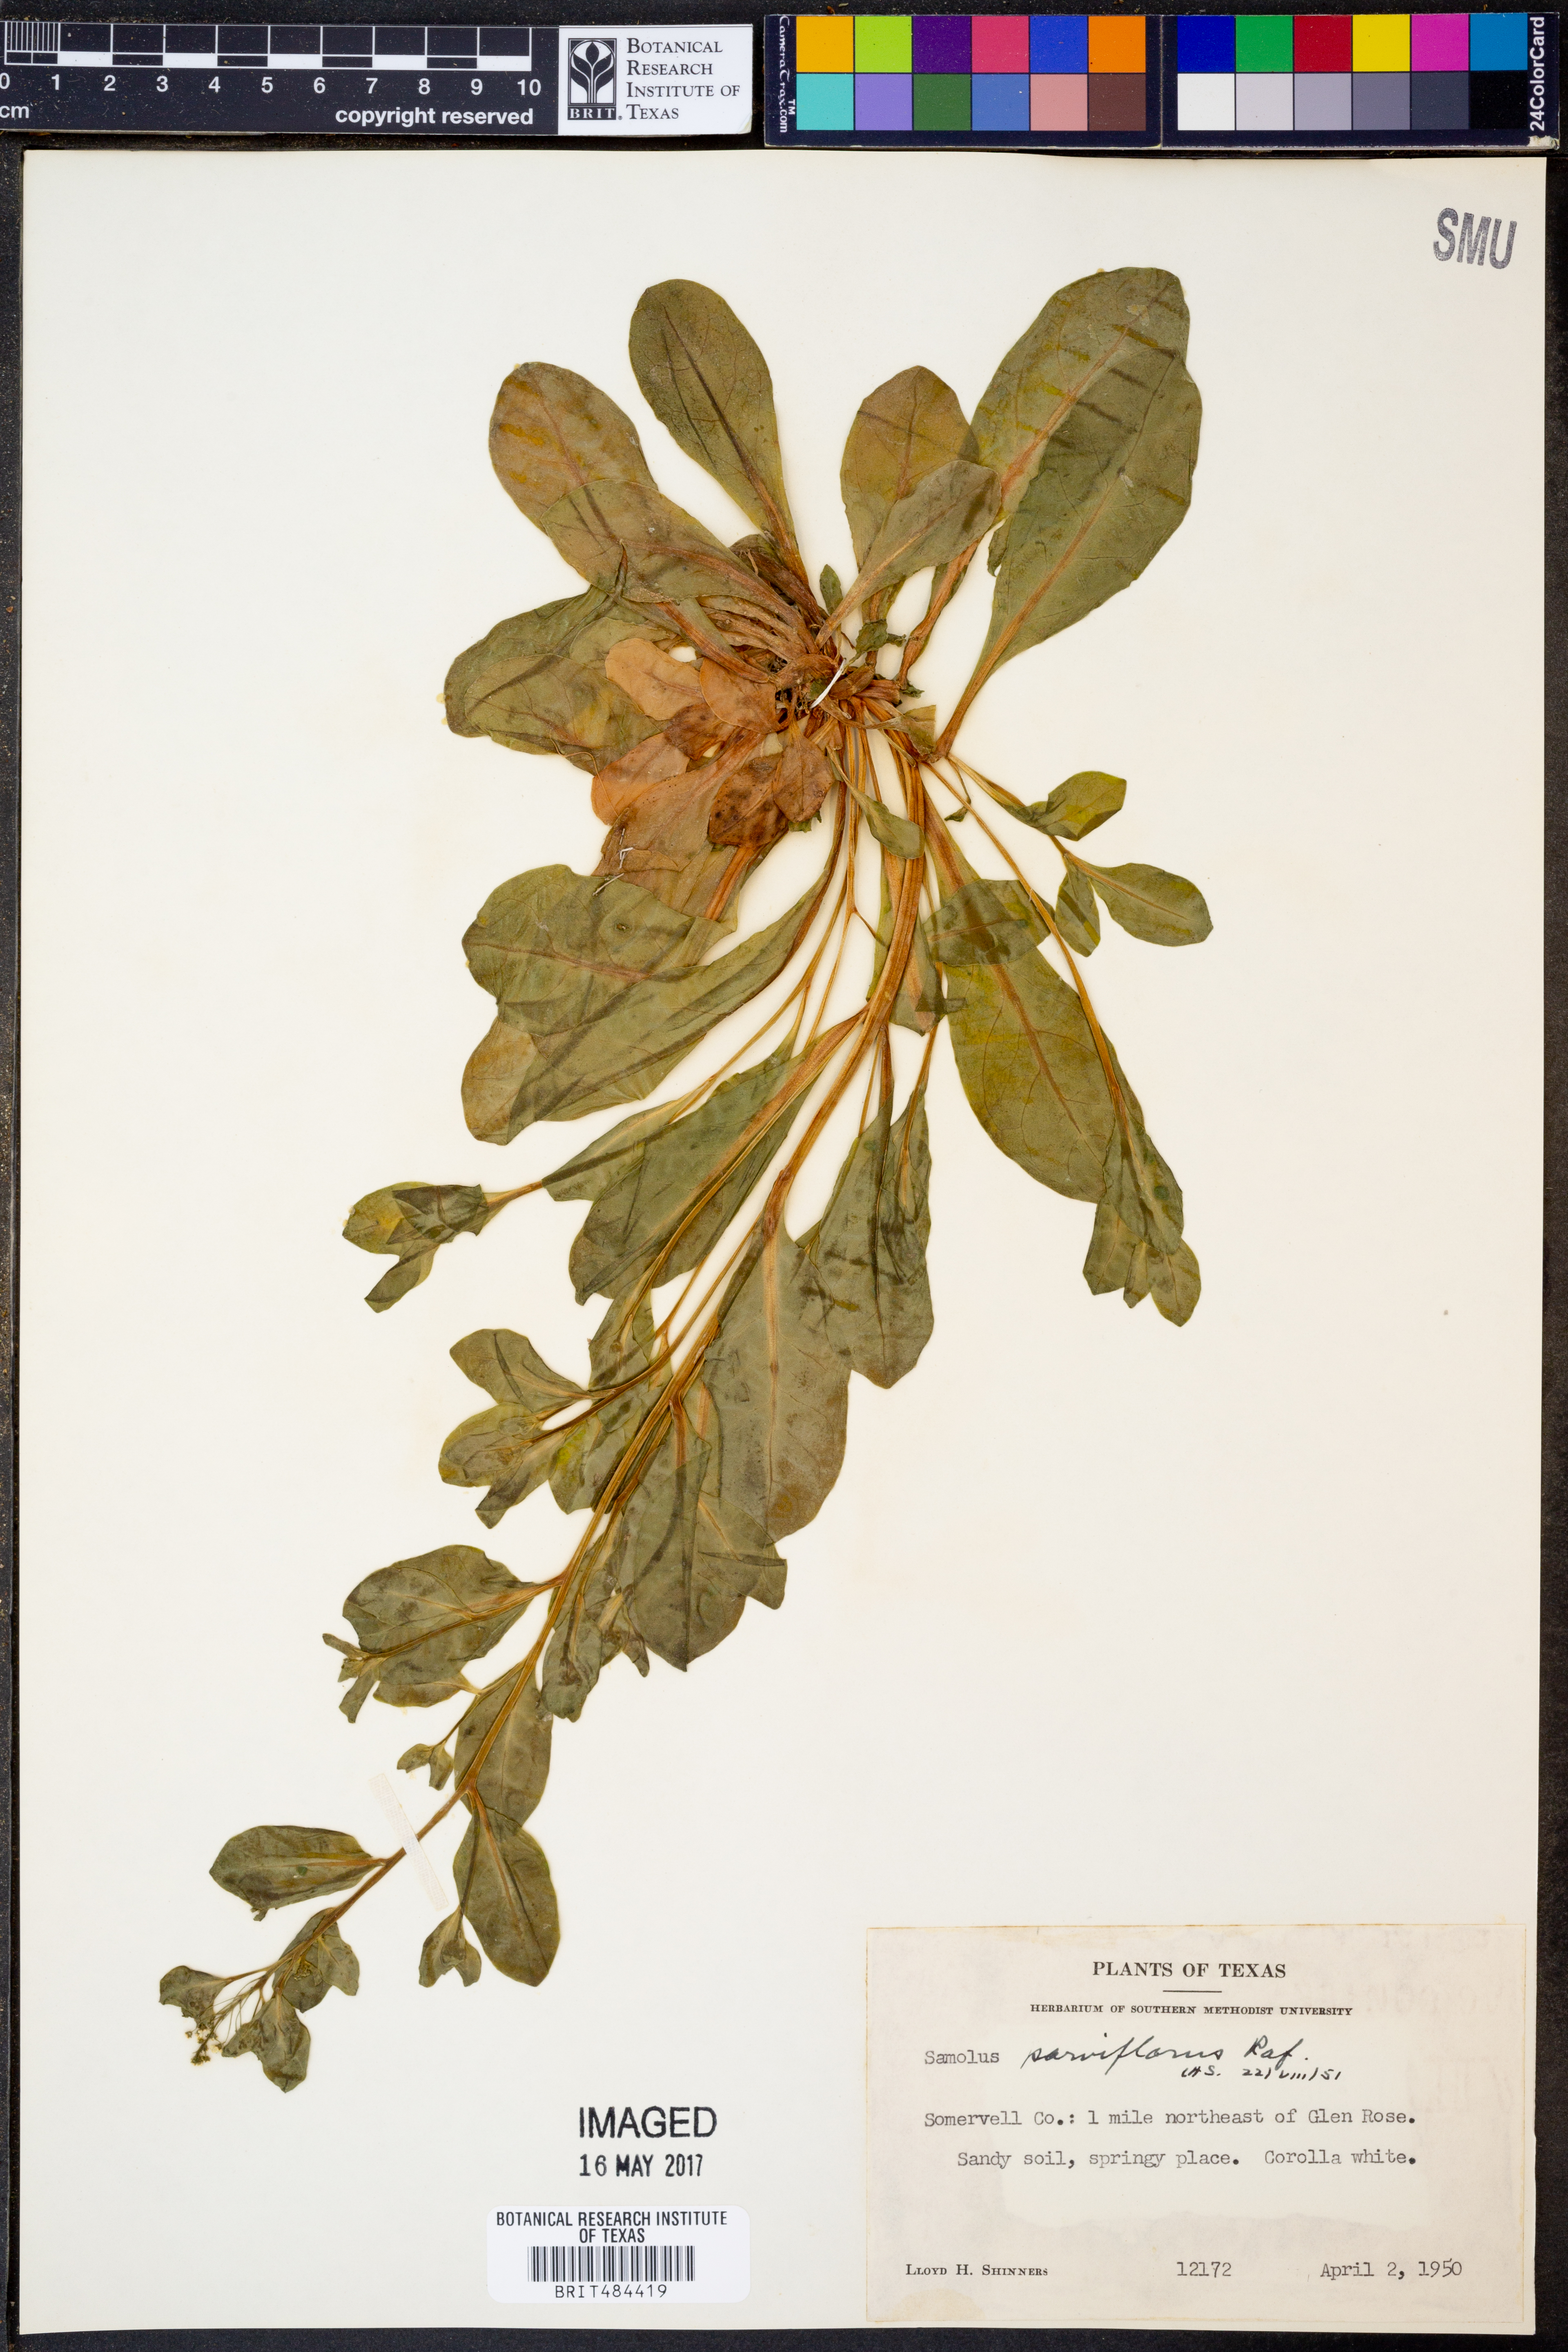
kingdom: Plantae
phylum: Tracheophyta
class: Magnoliopsida
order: Ericales
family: Primulaceae
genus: Samolus
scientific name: Samolus parviflorus
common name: False water pimpernel
